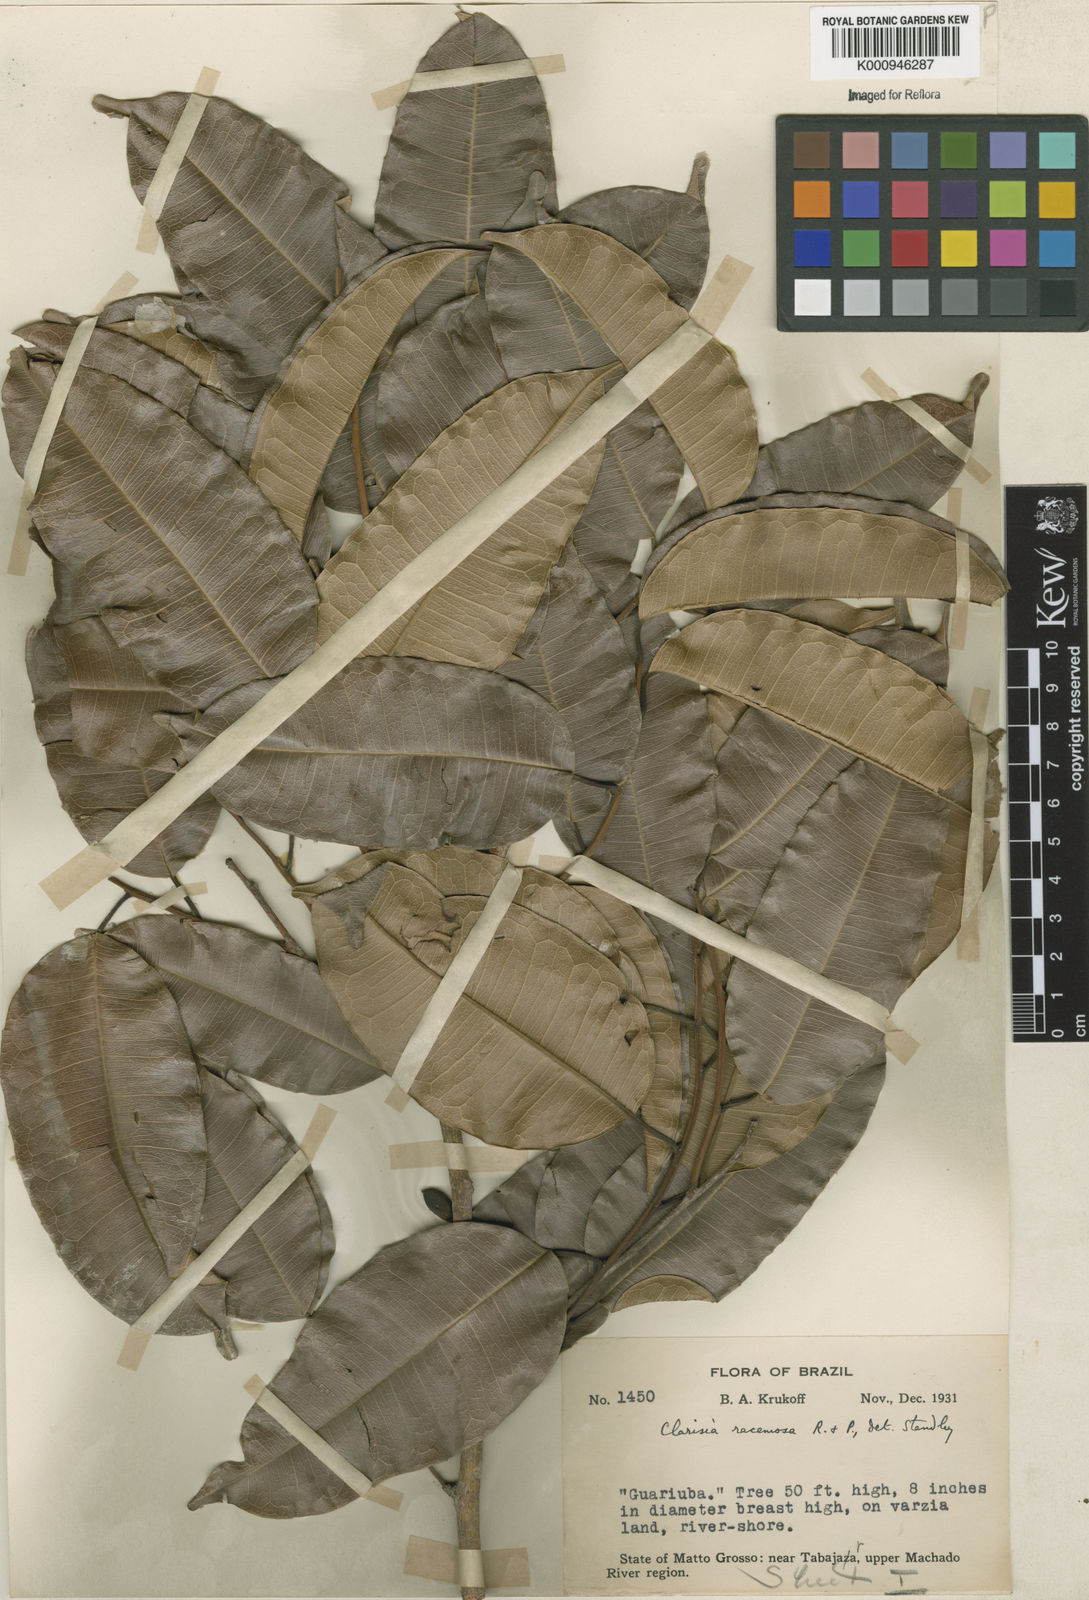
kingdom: Plantae
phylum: Tracheophyta
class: Magnoliopsida
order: Rosales
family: Moraceae
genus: Clarisia
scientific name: Clarisia racemosa
